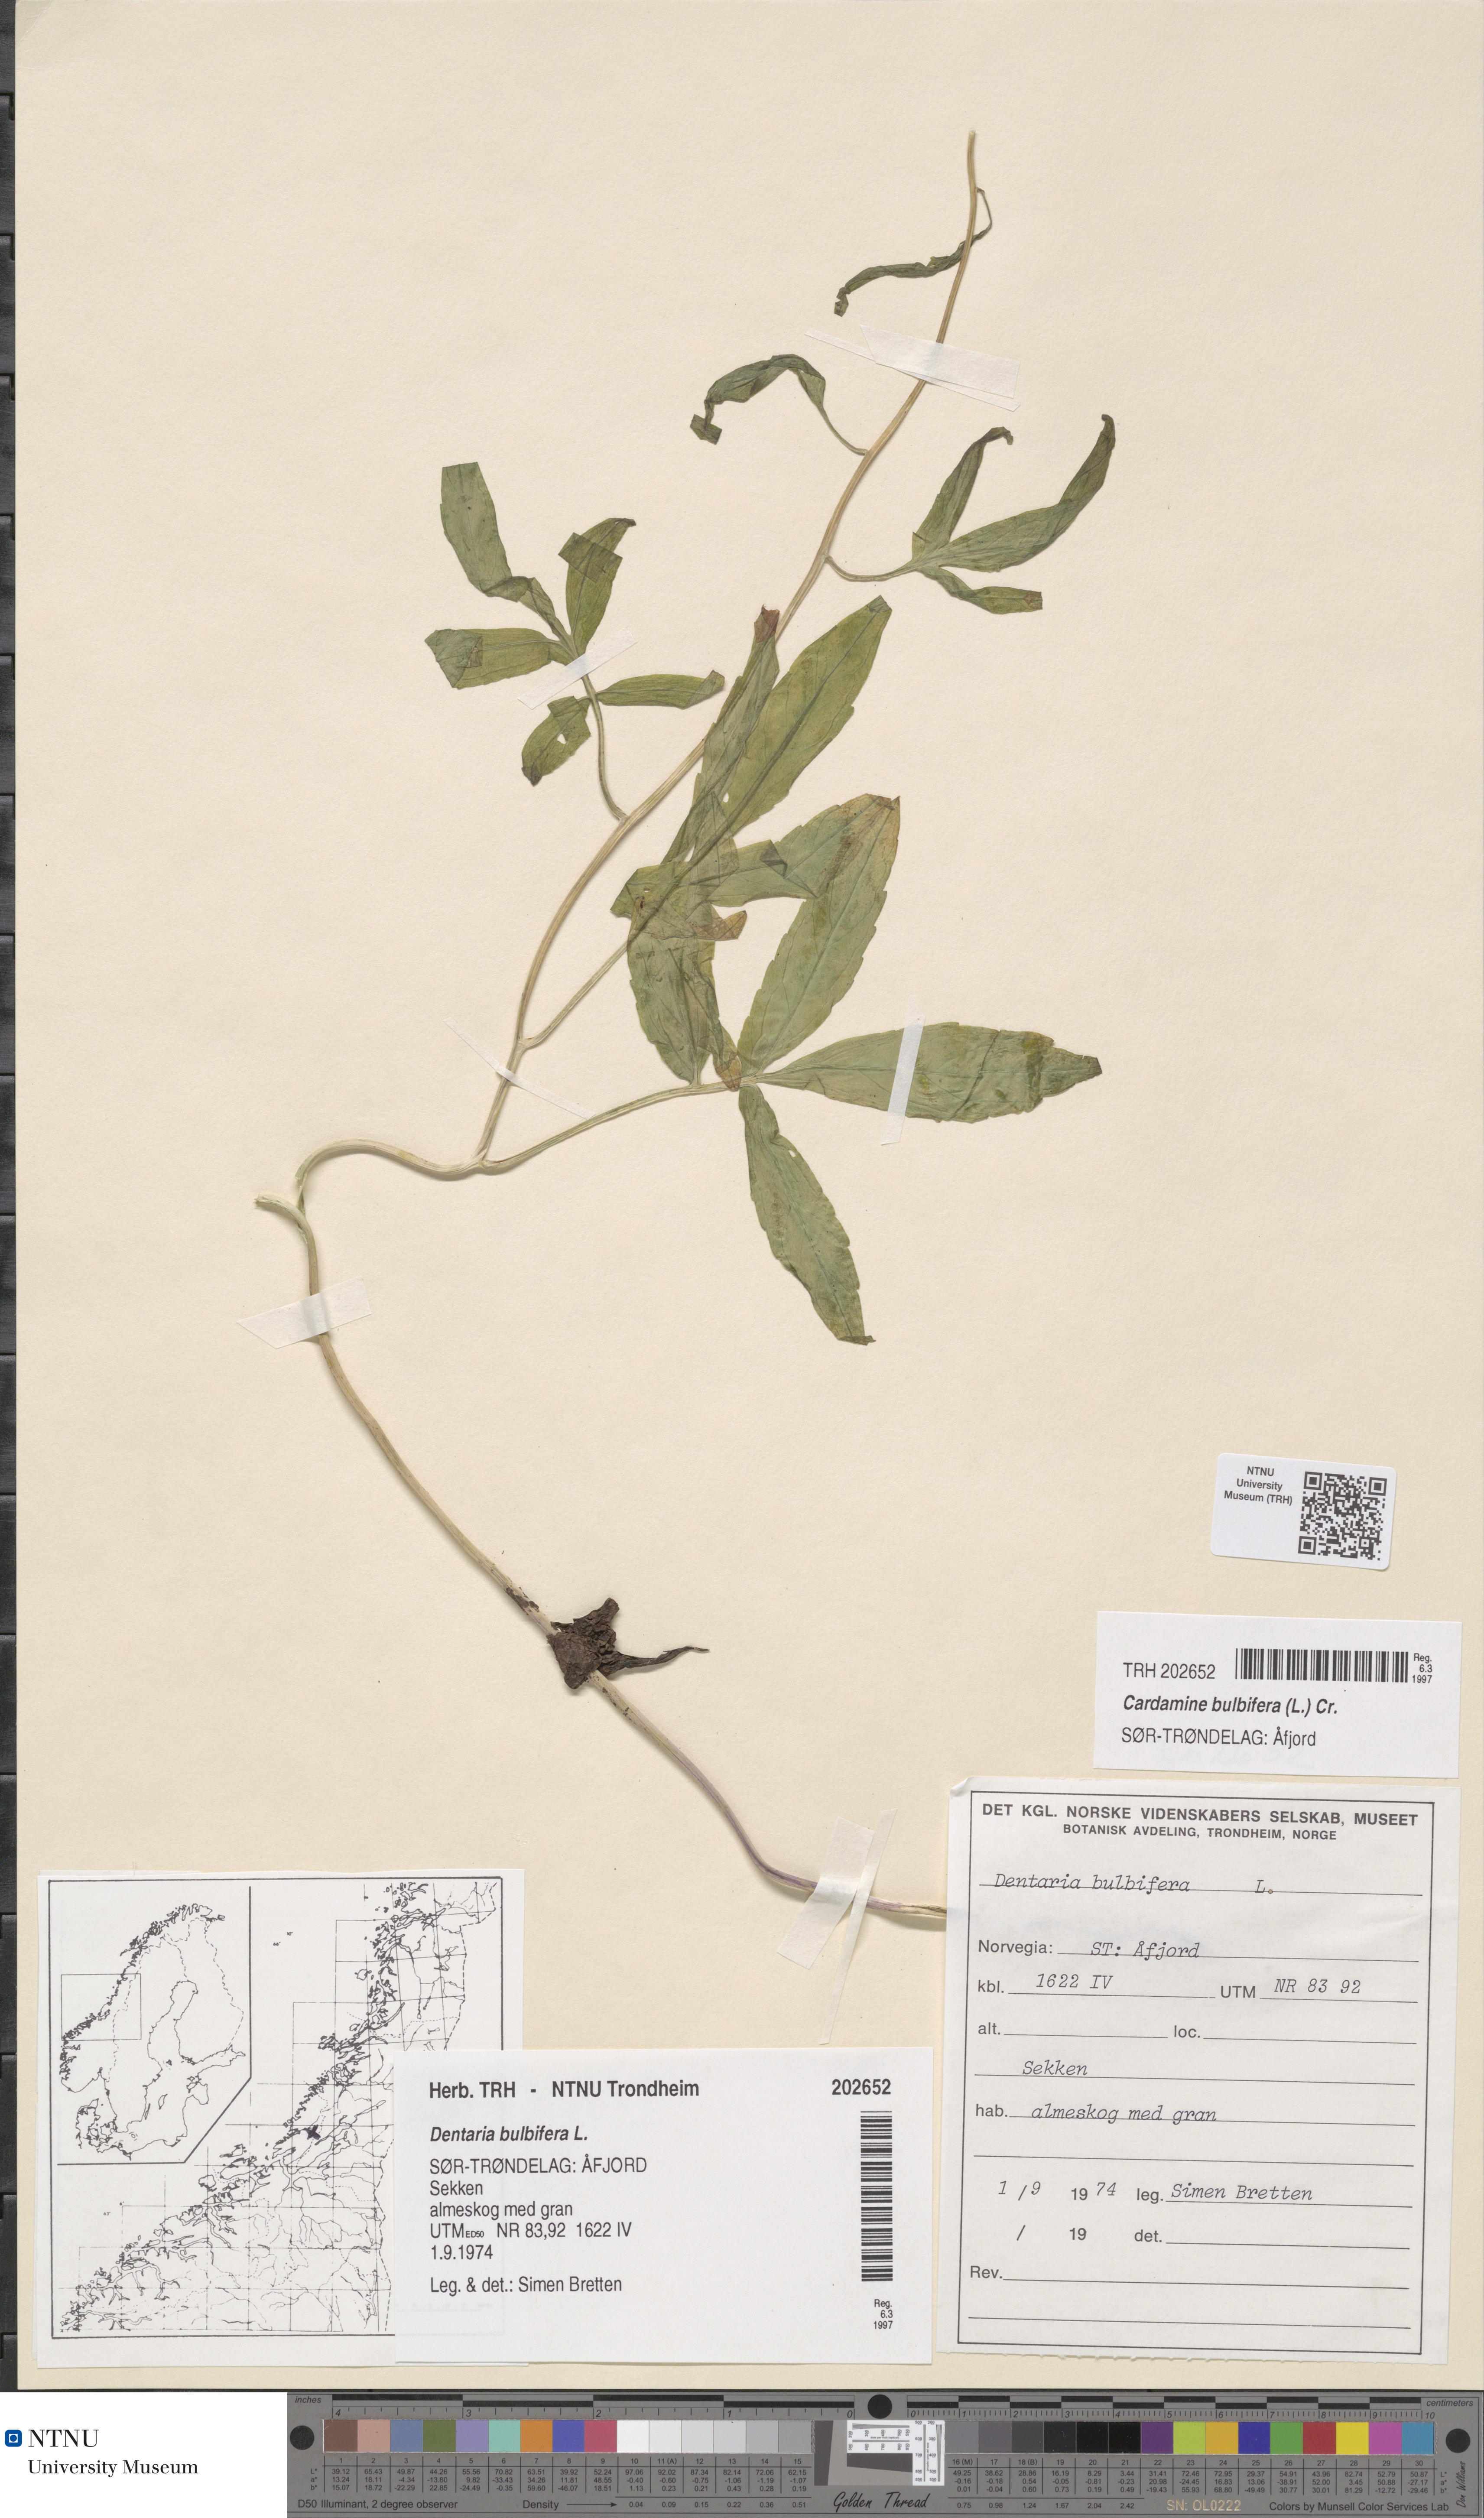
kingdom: Plantae
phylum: Tracheophyta
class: Magnoliopsida
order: Brassicales
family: Brassicaceae
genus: Cardamine
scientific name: Cardamine bulbifera
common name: Coralroot bittercress
